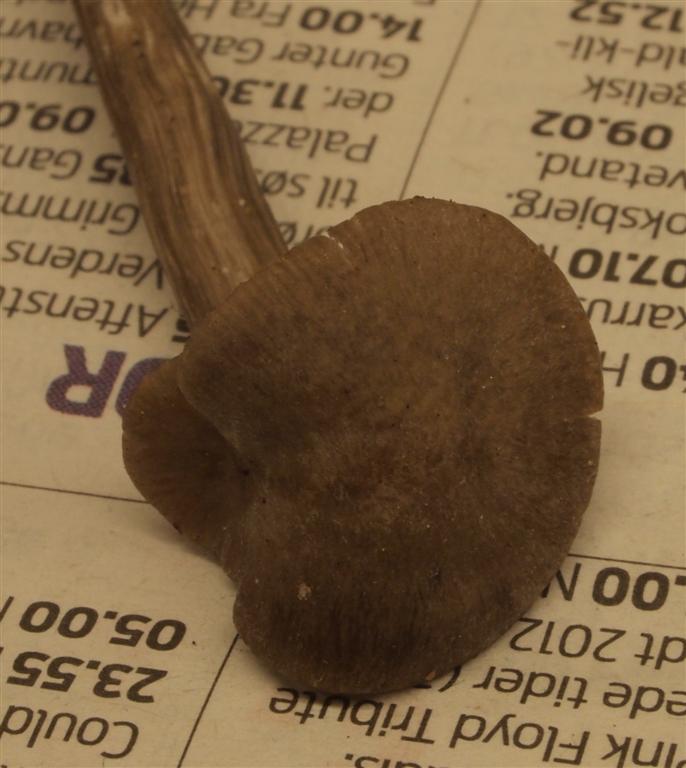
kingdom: Fungi
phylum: Basidiomycota
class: Agaricomycetes
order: Agaricales
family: Entolomataceae
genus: Entoloma
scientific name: Entoloma
